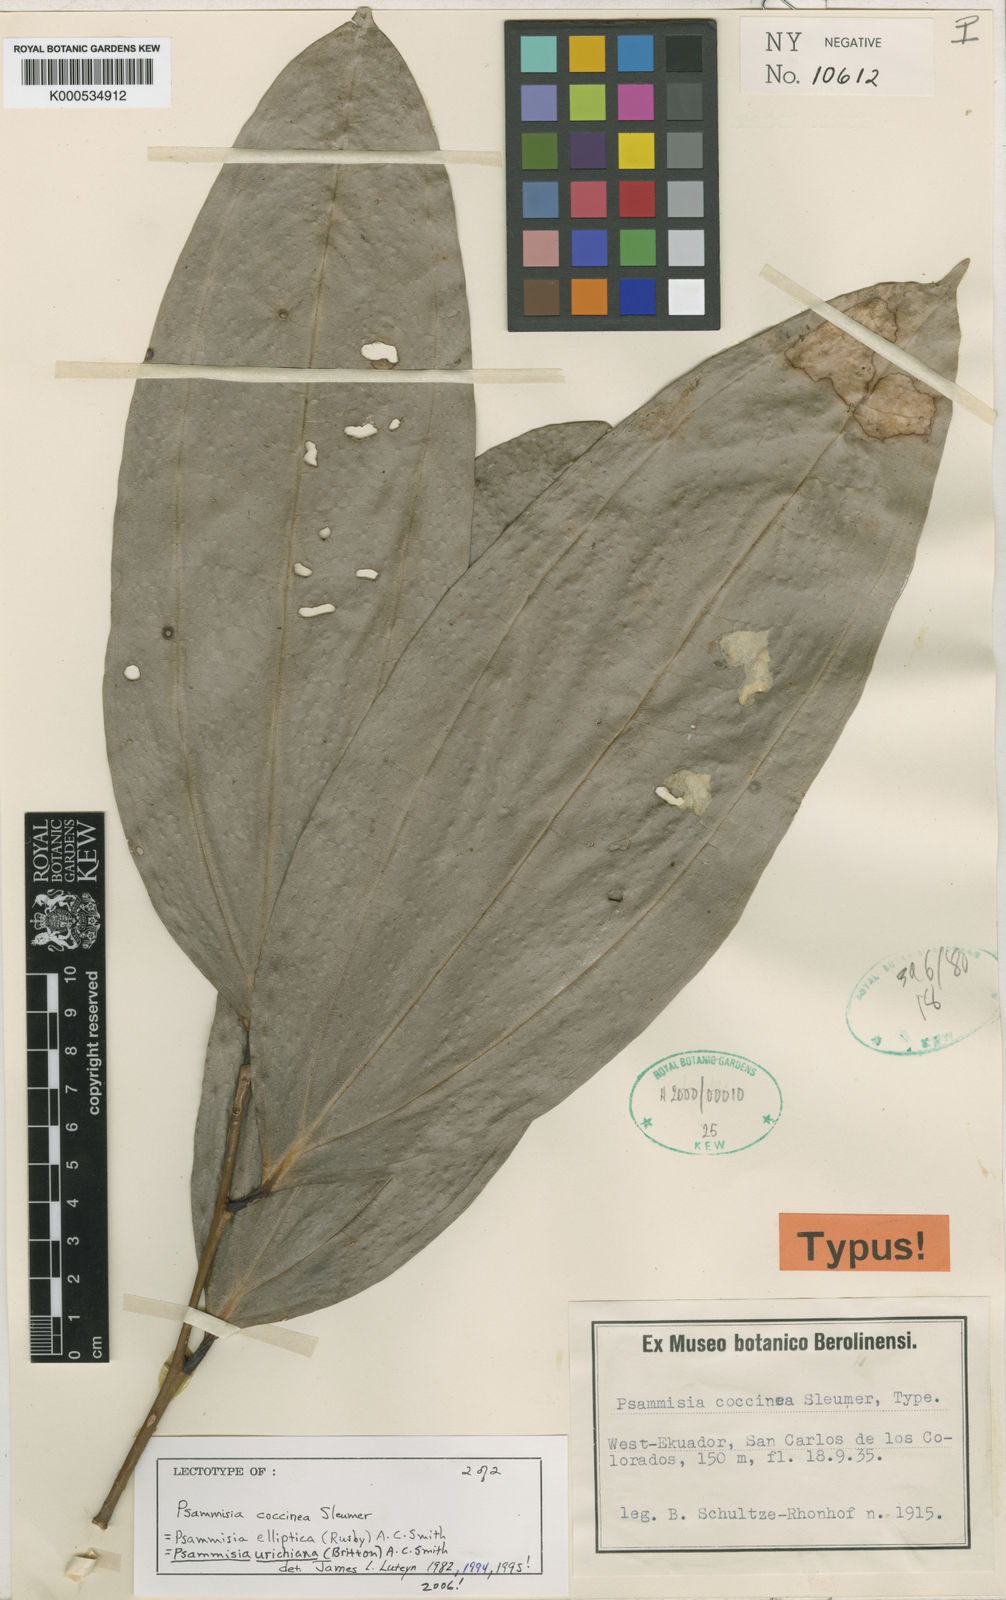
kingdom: Plantae
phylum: Tracheophyta
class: Magnoliopsida
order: Ericales
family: Ericaceae
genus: Psammisia
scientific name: Psammisia urichiana
